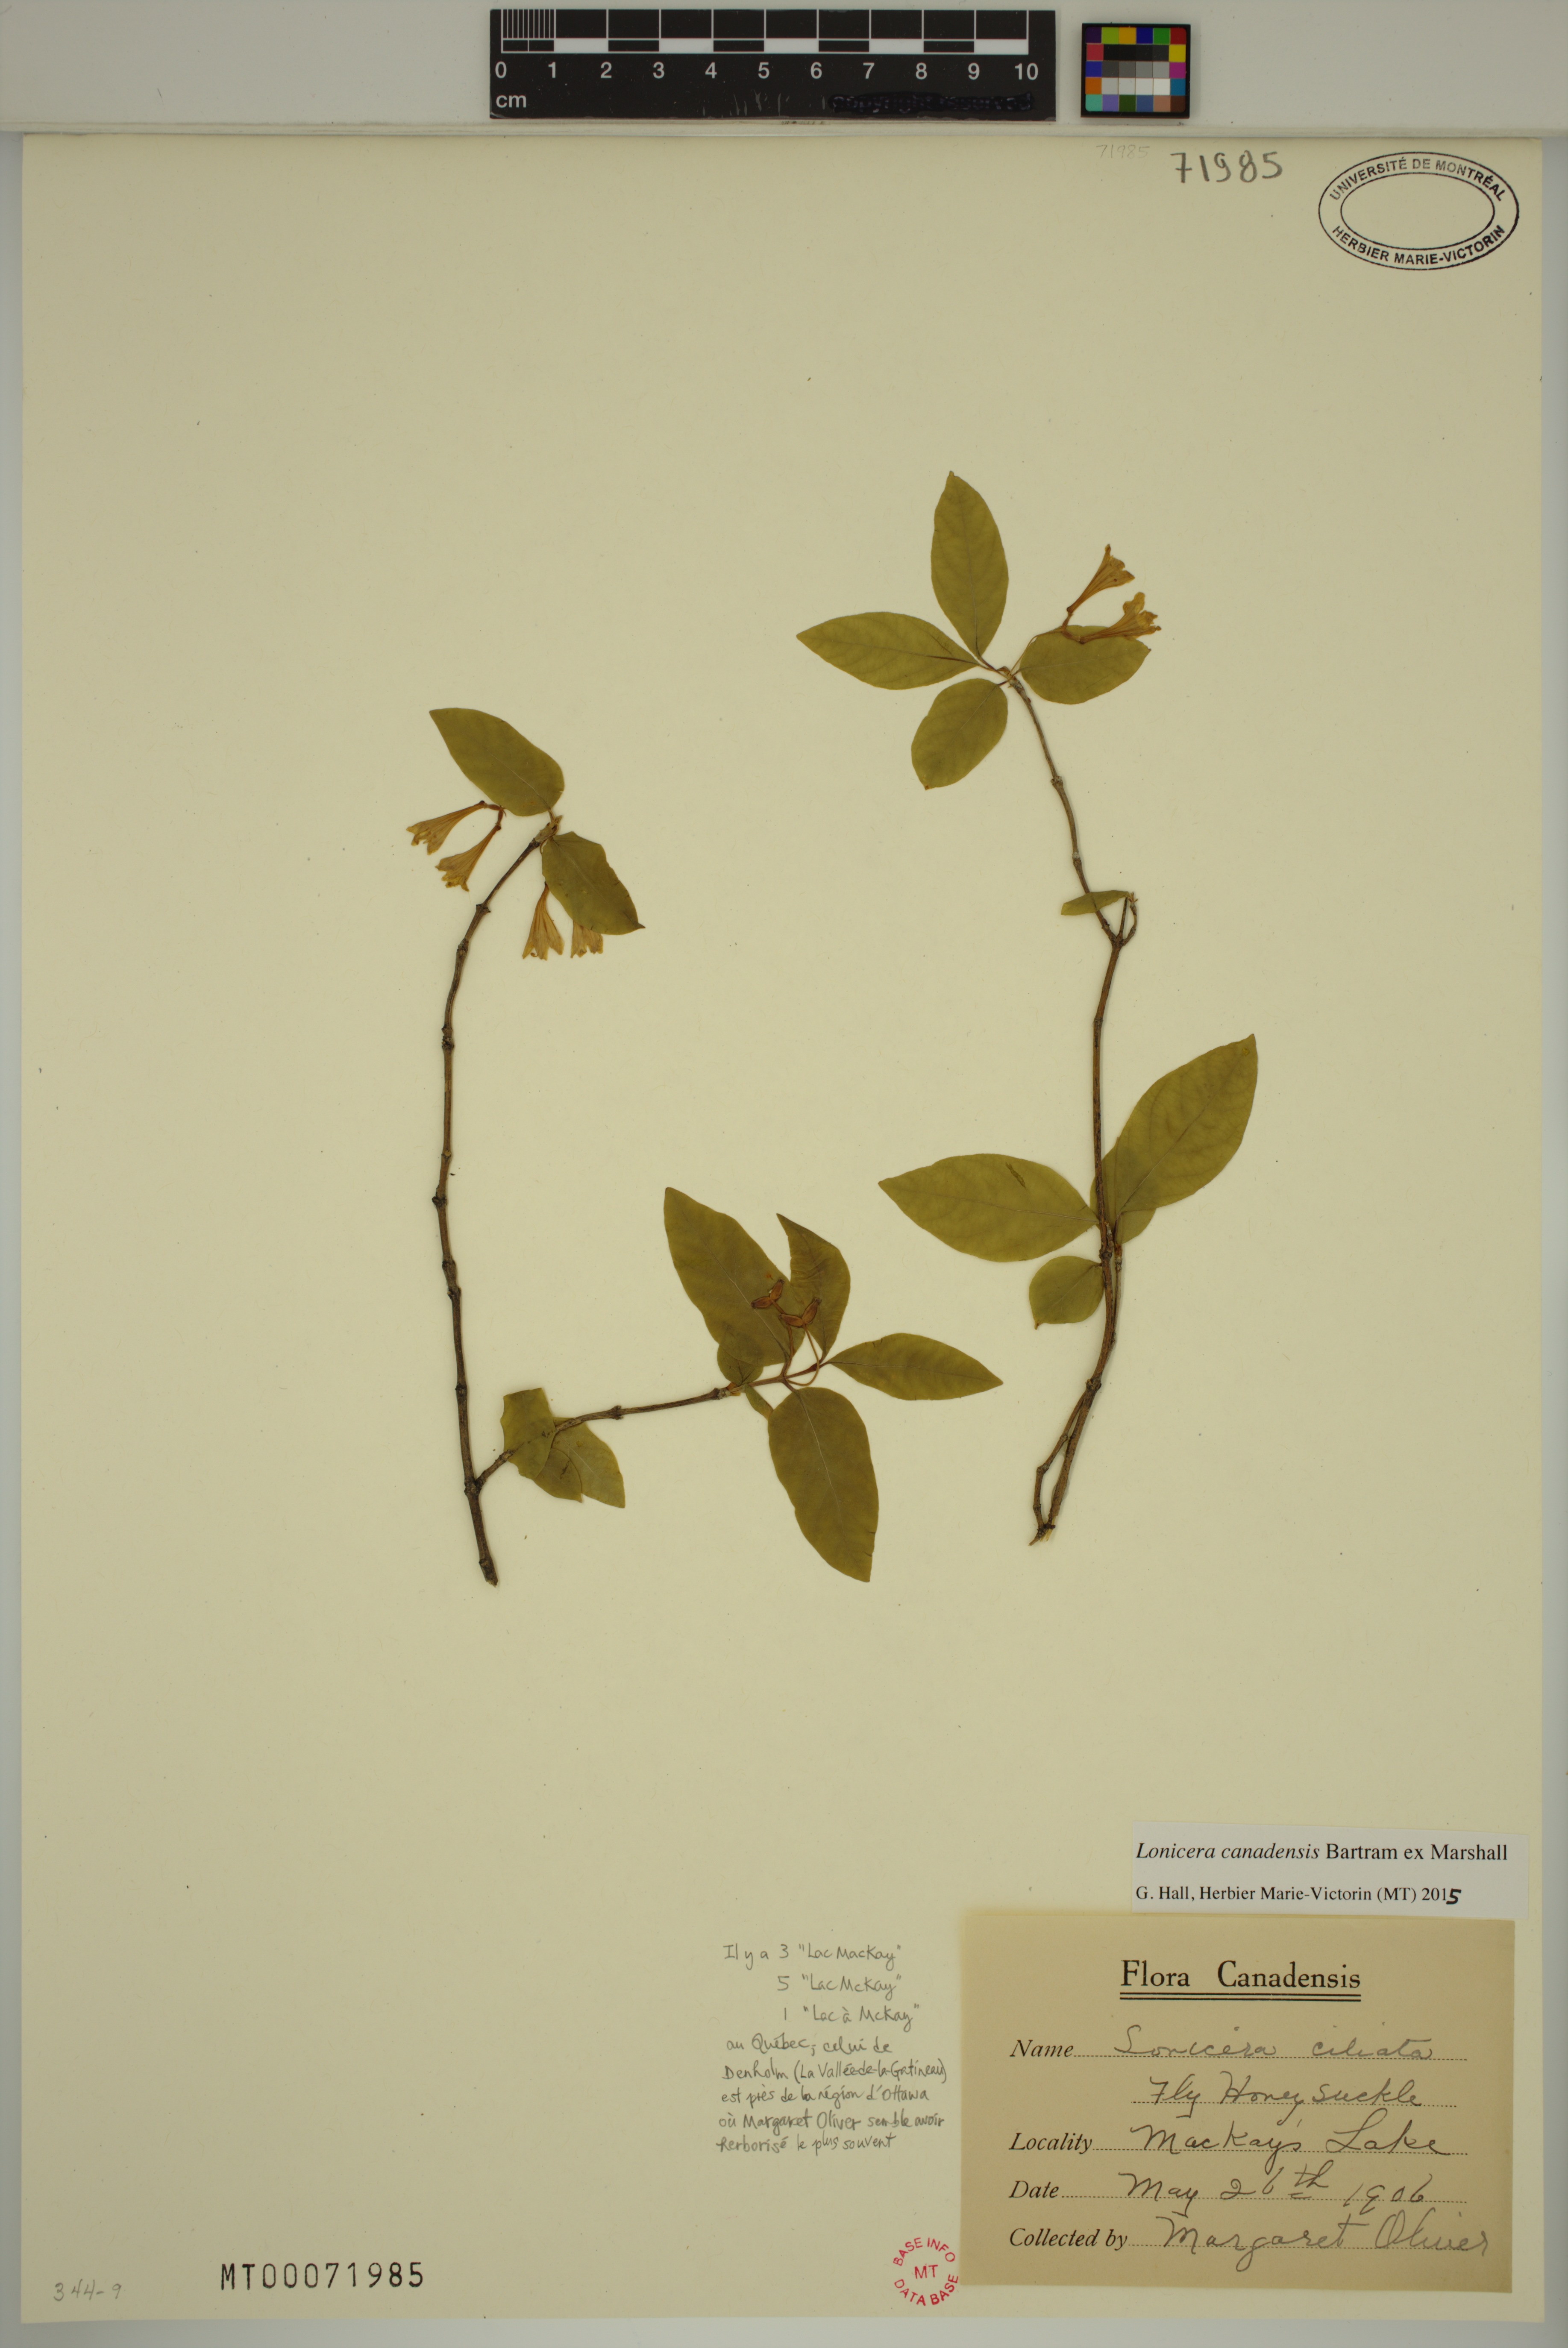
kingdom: Plantae
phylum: Tracheophyta
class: Magnoliopsida
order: Dipsacales
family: Caprifoliaceae
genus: Lonicera
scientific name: Lonicera canadensis
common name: American fly-honeysuckle
